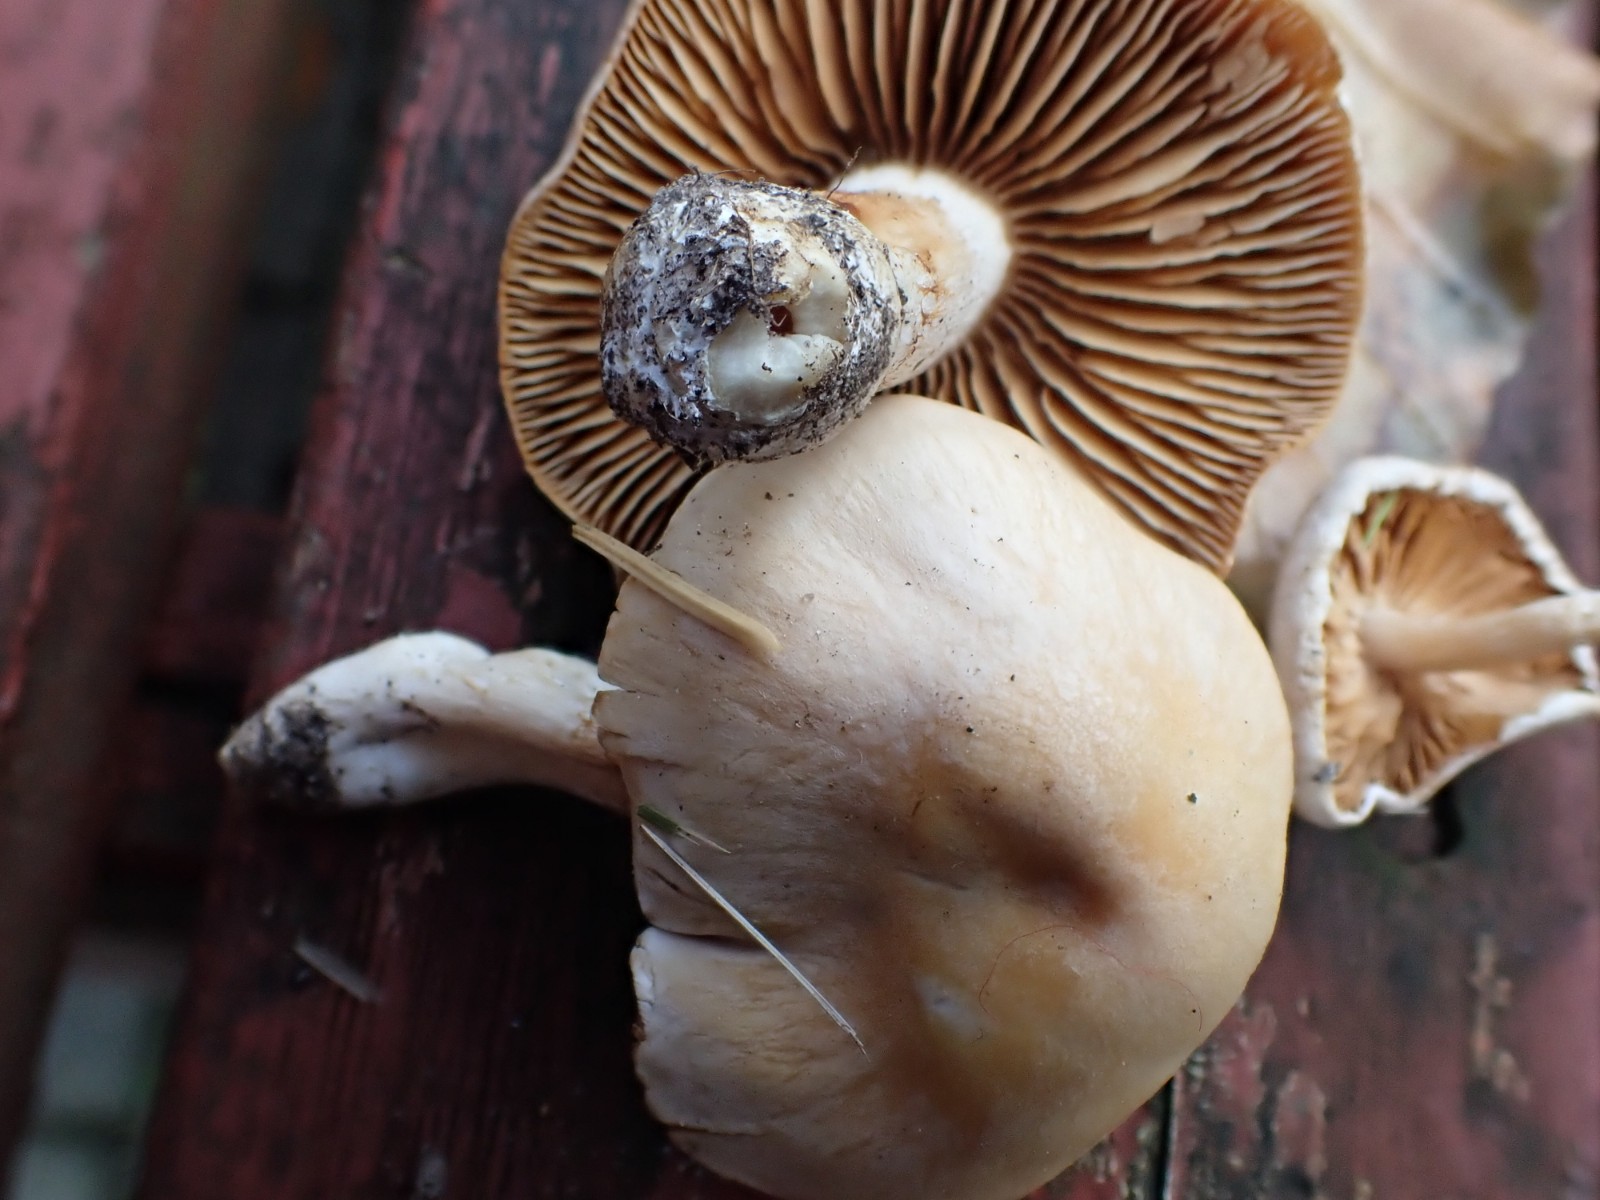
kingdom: Fungi
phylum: Basidiomycota
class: Agaricomycetes
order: Agaricales
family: Cortinariaceae
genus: Thaxterogaster
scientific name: Thaxterogaster
